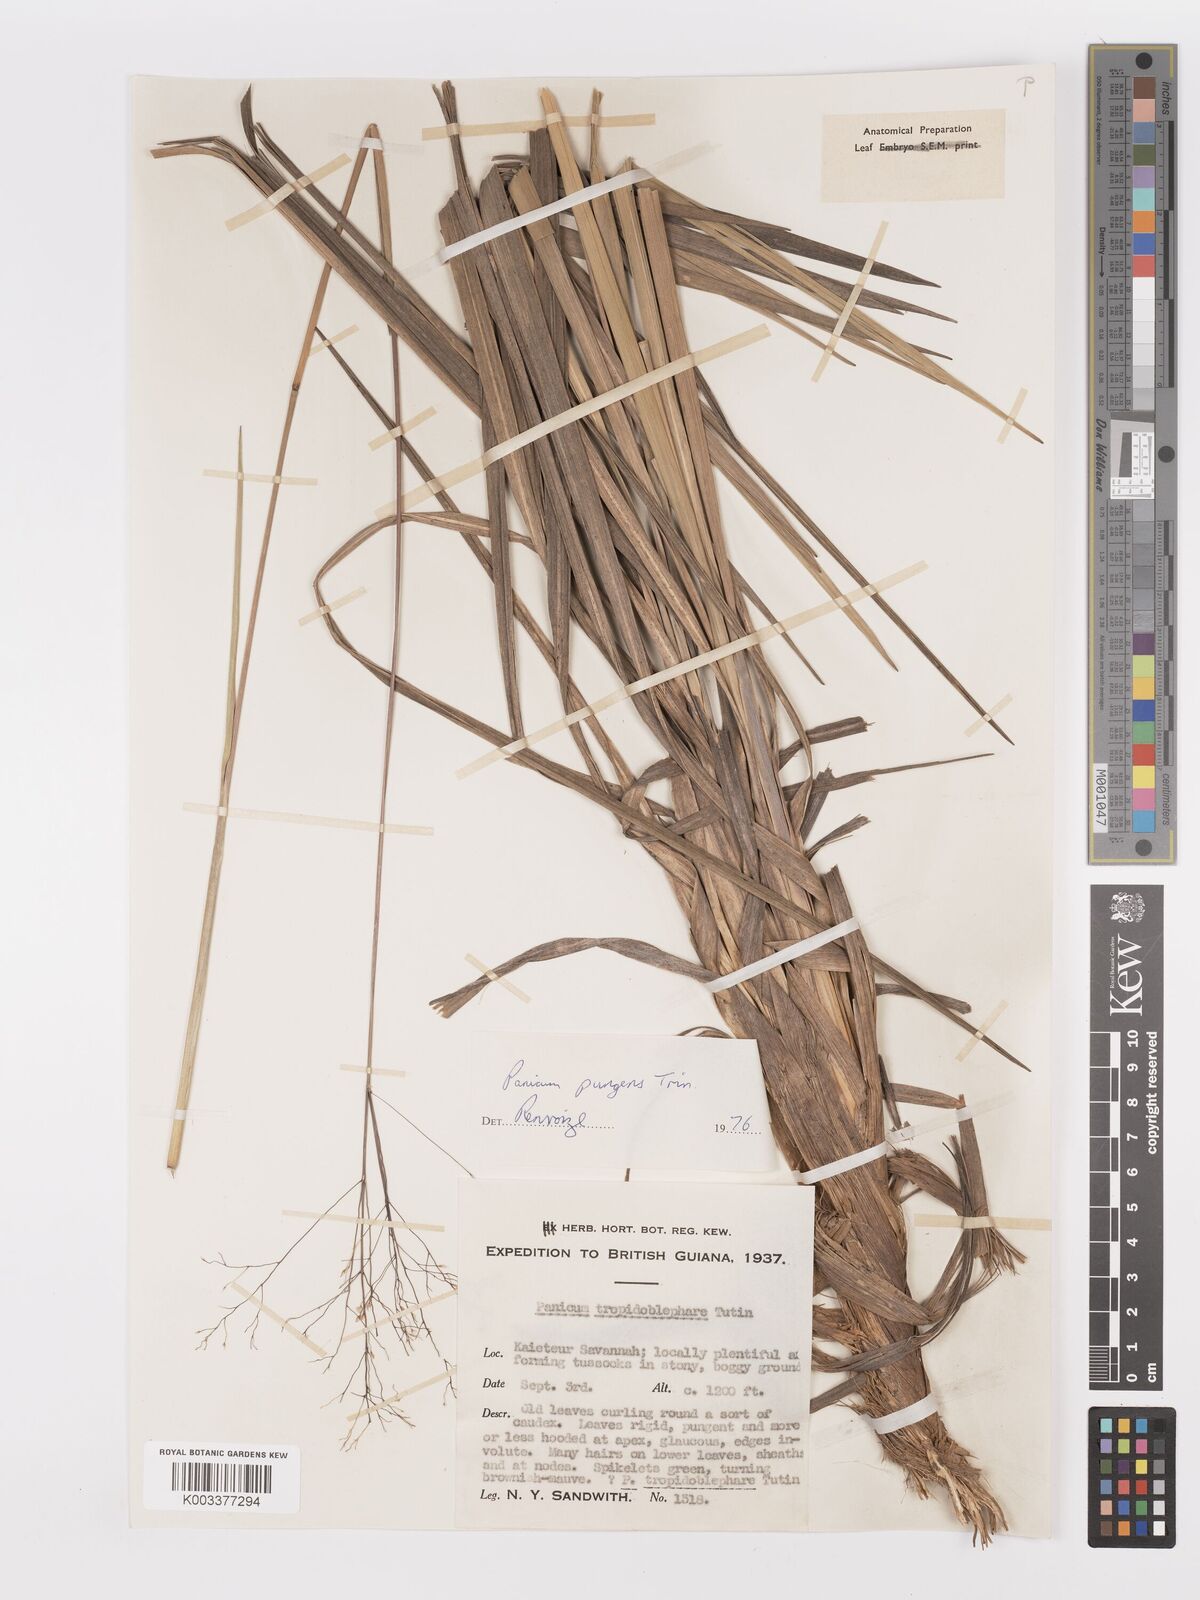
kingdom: Plantae
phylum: Tracheophyta
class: Liliopsida
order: Poales
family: Poaceae
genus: Apochloa
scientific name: Apochloa chnoodes
